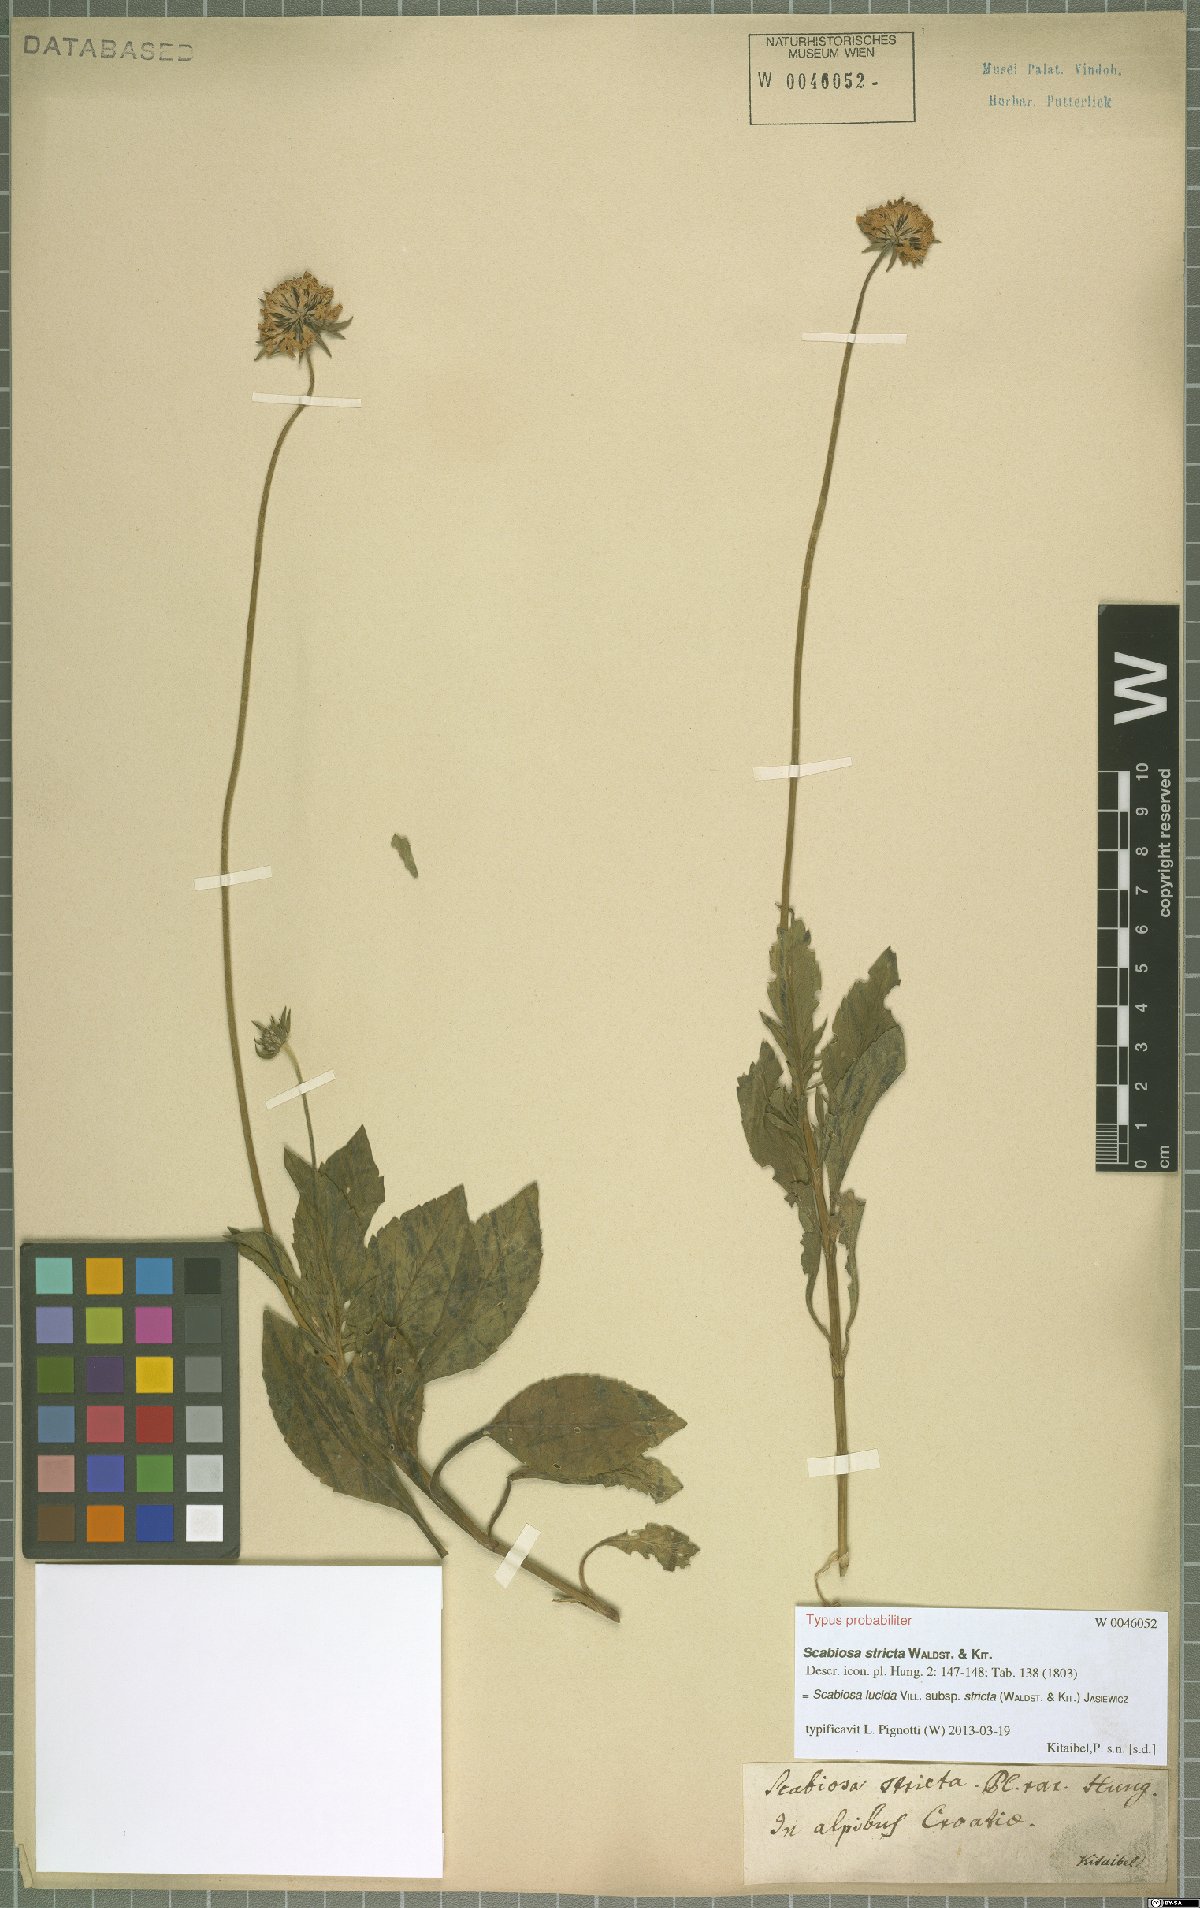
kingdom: Plantae
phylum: Tracheophyta
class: Magnoliopsida
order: Dipsacales
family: Caprifoliaceae
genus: Scabiosa
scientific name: Scabiosa lucida
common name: Shining scabious
